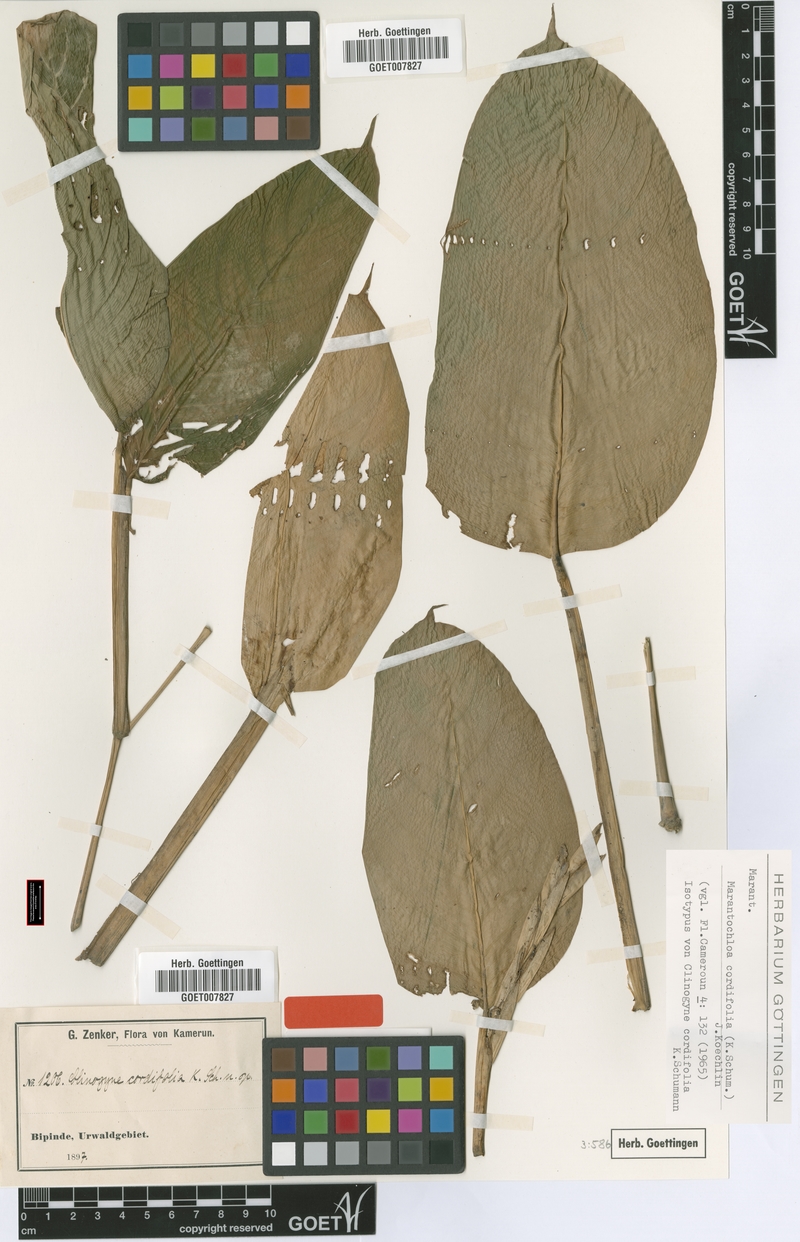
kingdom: Plantae
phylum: Tracheophyta
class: Liliopsida
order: Zingiberales
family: Marantaceae
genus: Marantochloa
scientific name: Marantochloa cordifolia
